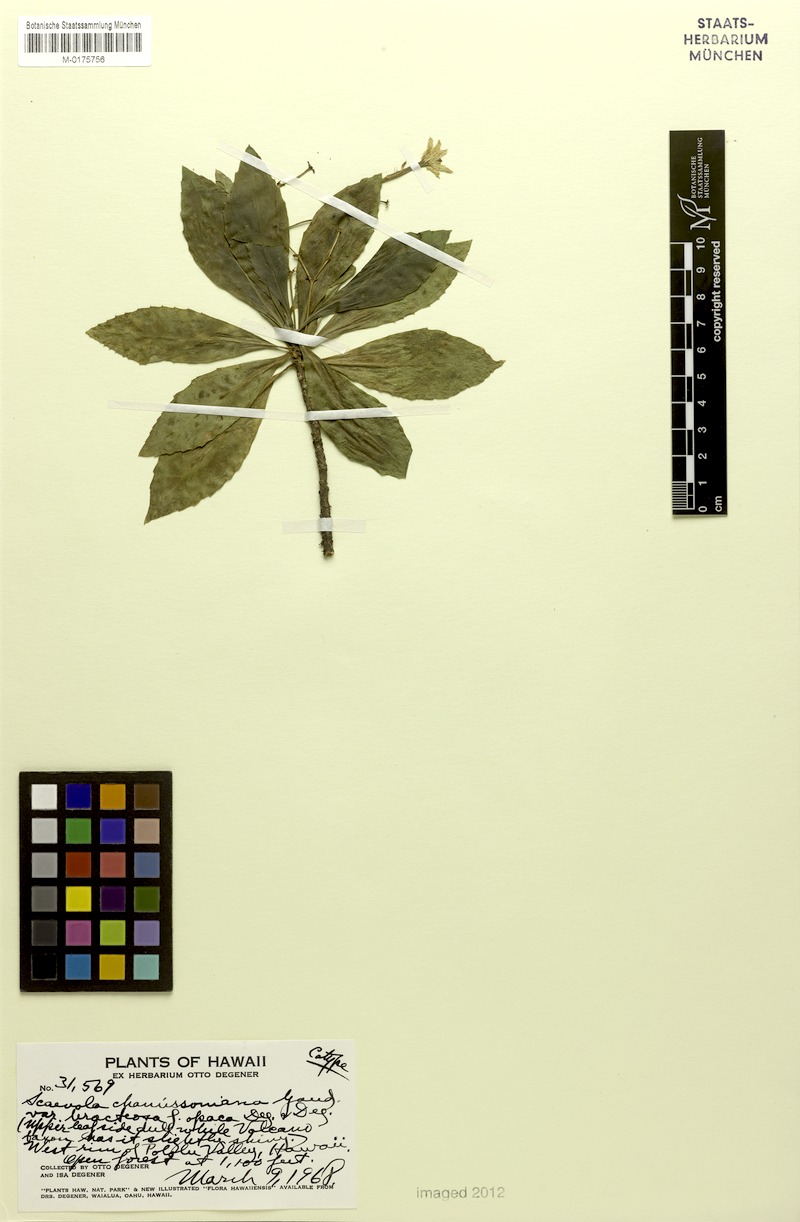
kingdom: Plantae
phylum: Tracheophyta
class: Magnoliopsida
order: Asterales
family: Goodeniaceae
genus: Scaevola
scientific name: Scaevola chamissoniana
